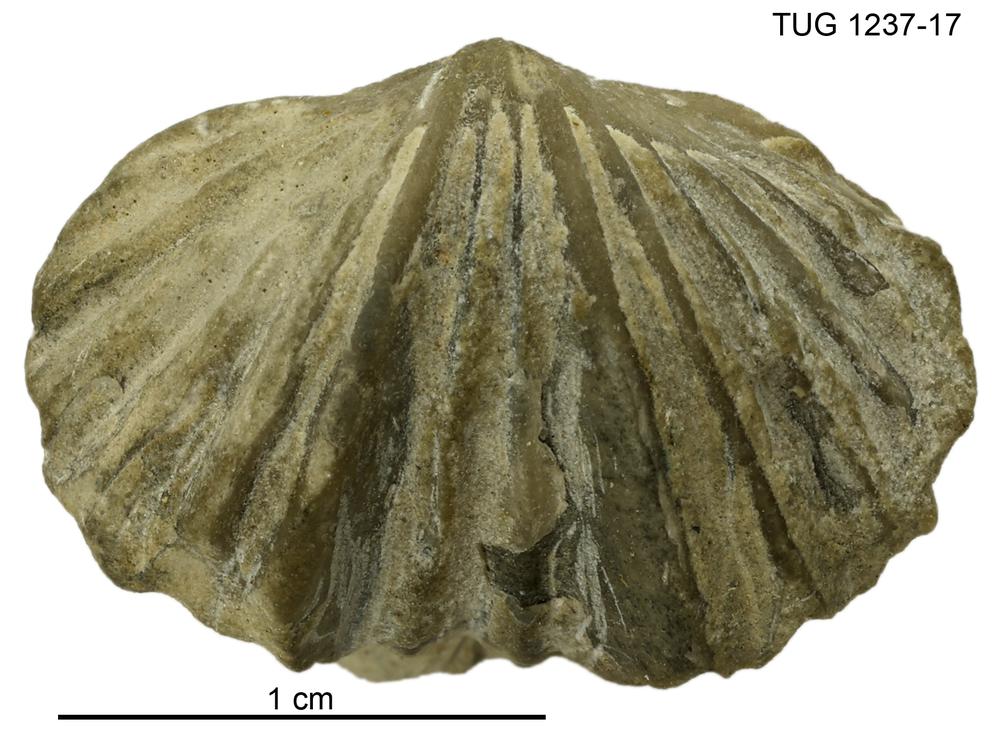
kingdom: Animalia
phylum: Brachiopoda
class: Rhynchonellata
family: Platystrophiidae
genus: Neoplatystrophia
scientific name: Neoplatystrophia saxbyensis
